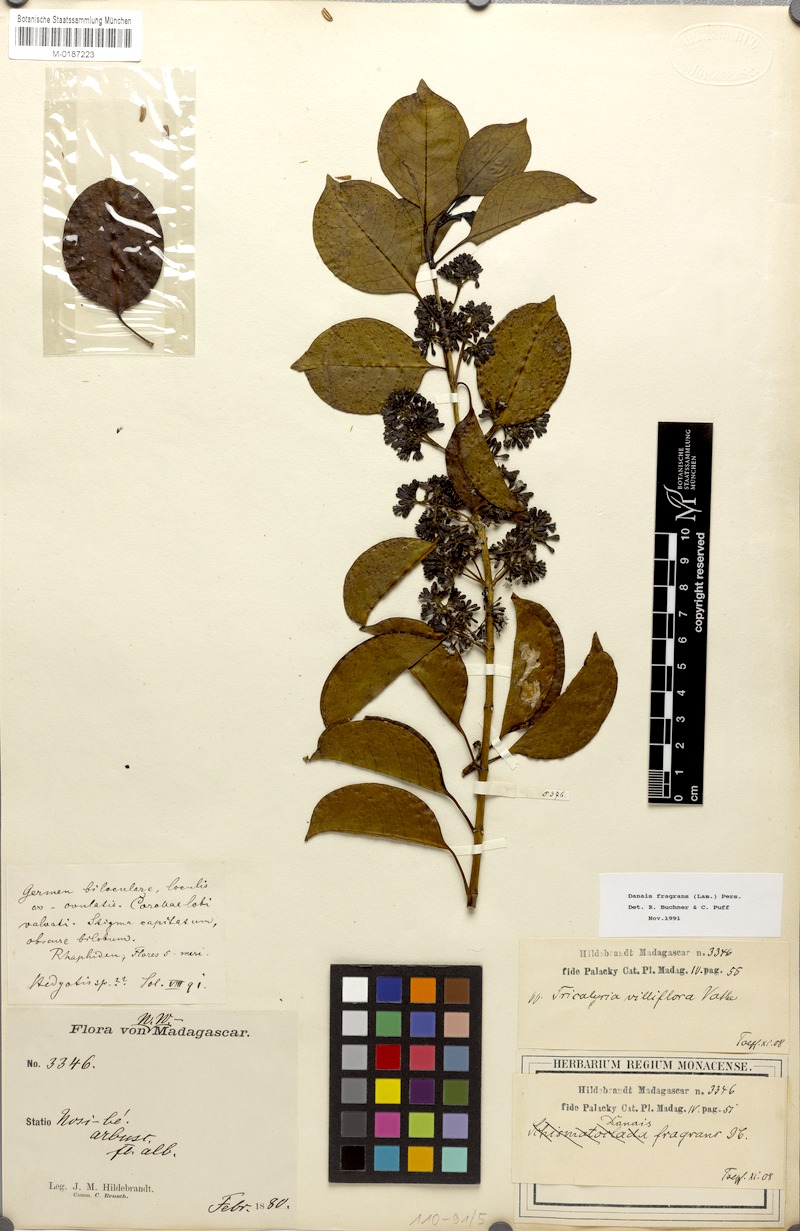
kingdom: Plantae
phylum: Tracheophyta
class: Magnoliopsida
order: Gentianales
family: Rubiaceae
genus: Danais
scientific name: Danais fragrans
